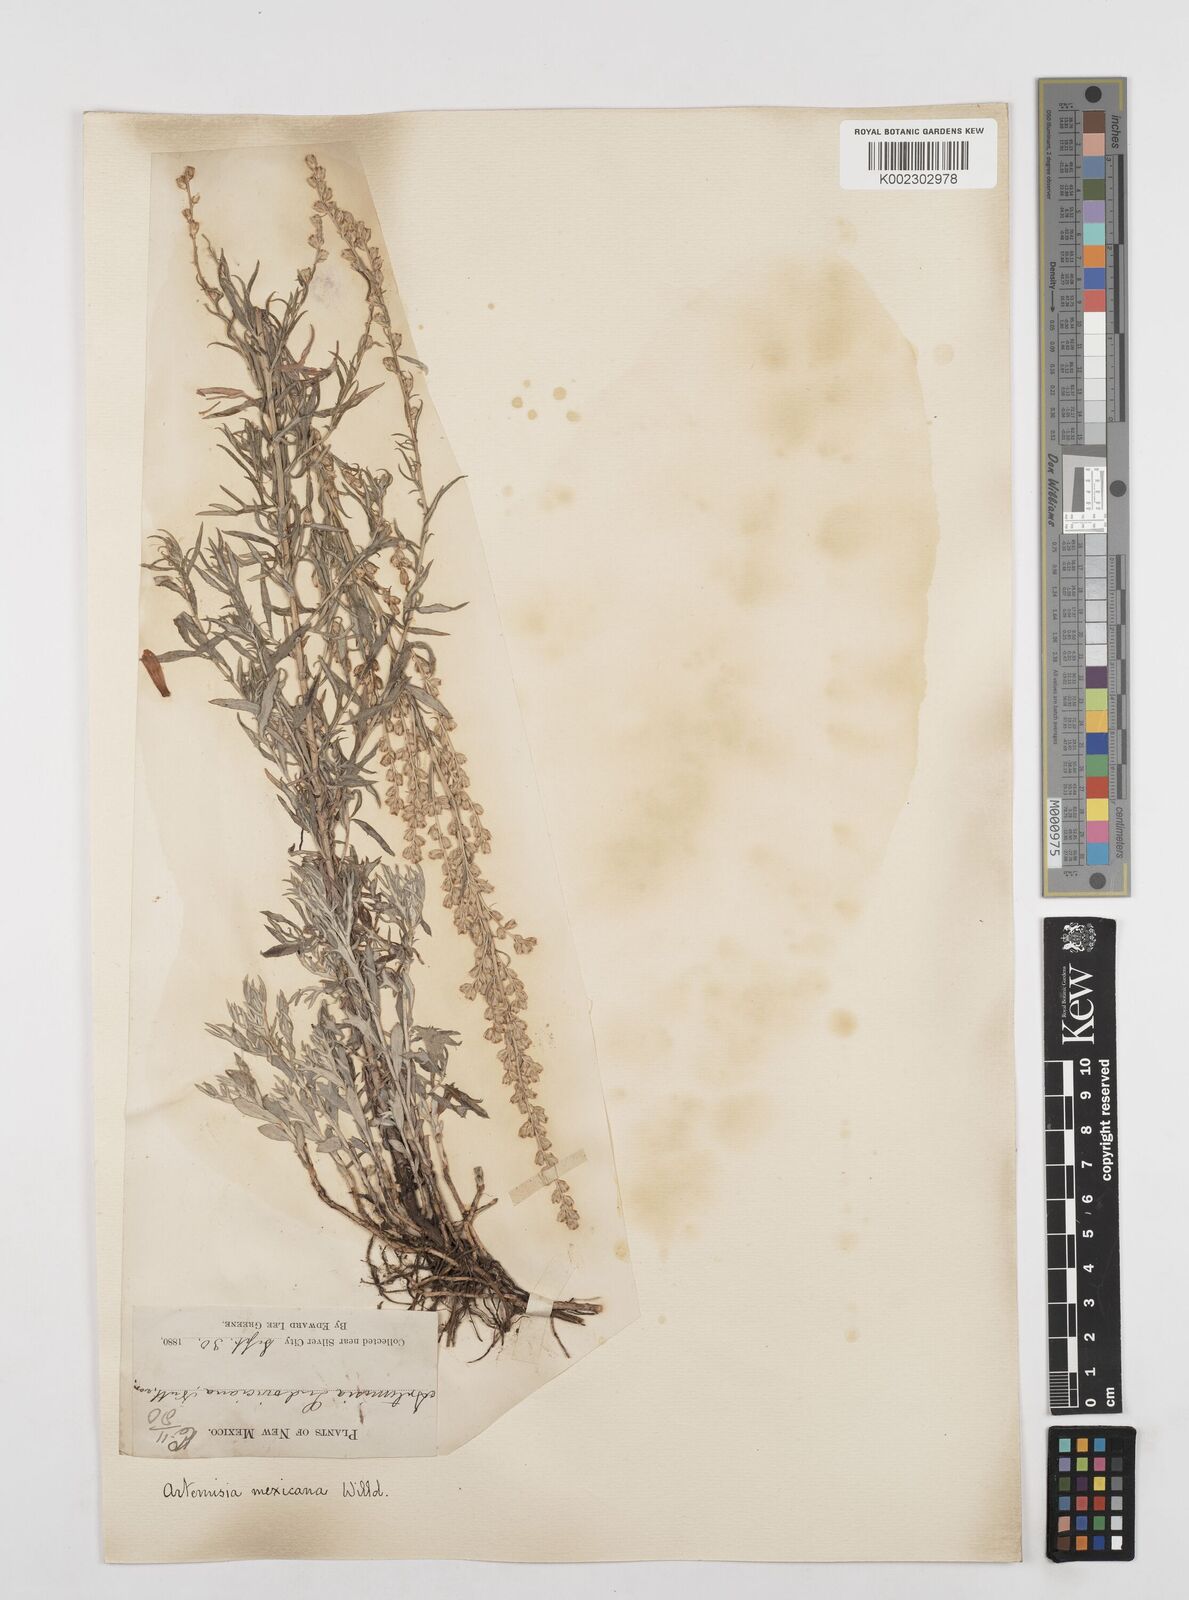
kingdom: Plantae
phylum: Tracheophyta
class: Magnoliopsida
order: Asterales
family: Asteraceae
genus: Artemisia
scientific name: Artemisia ludoviciana
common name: Western mugwort
